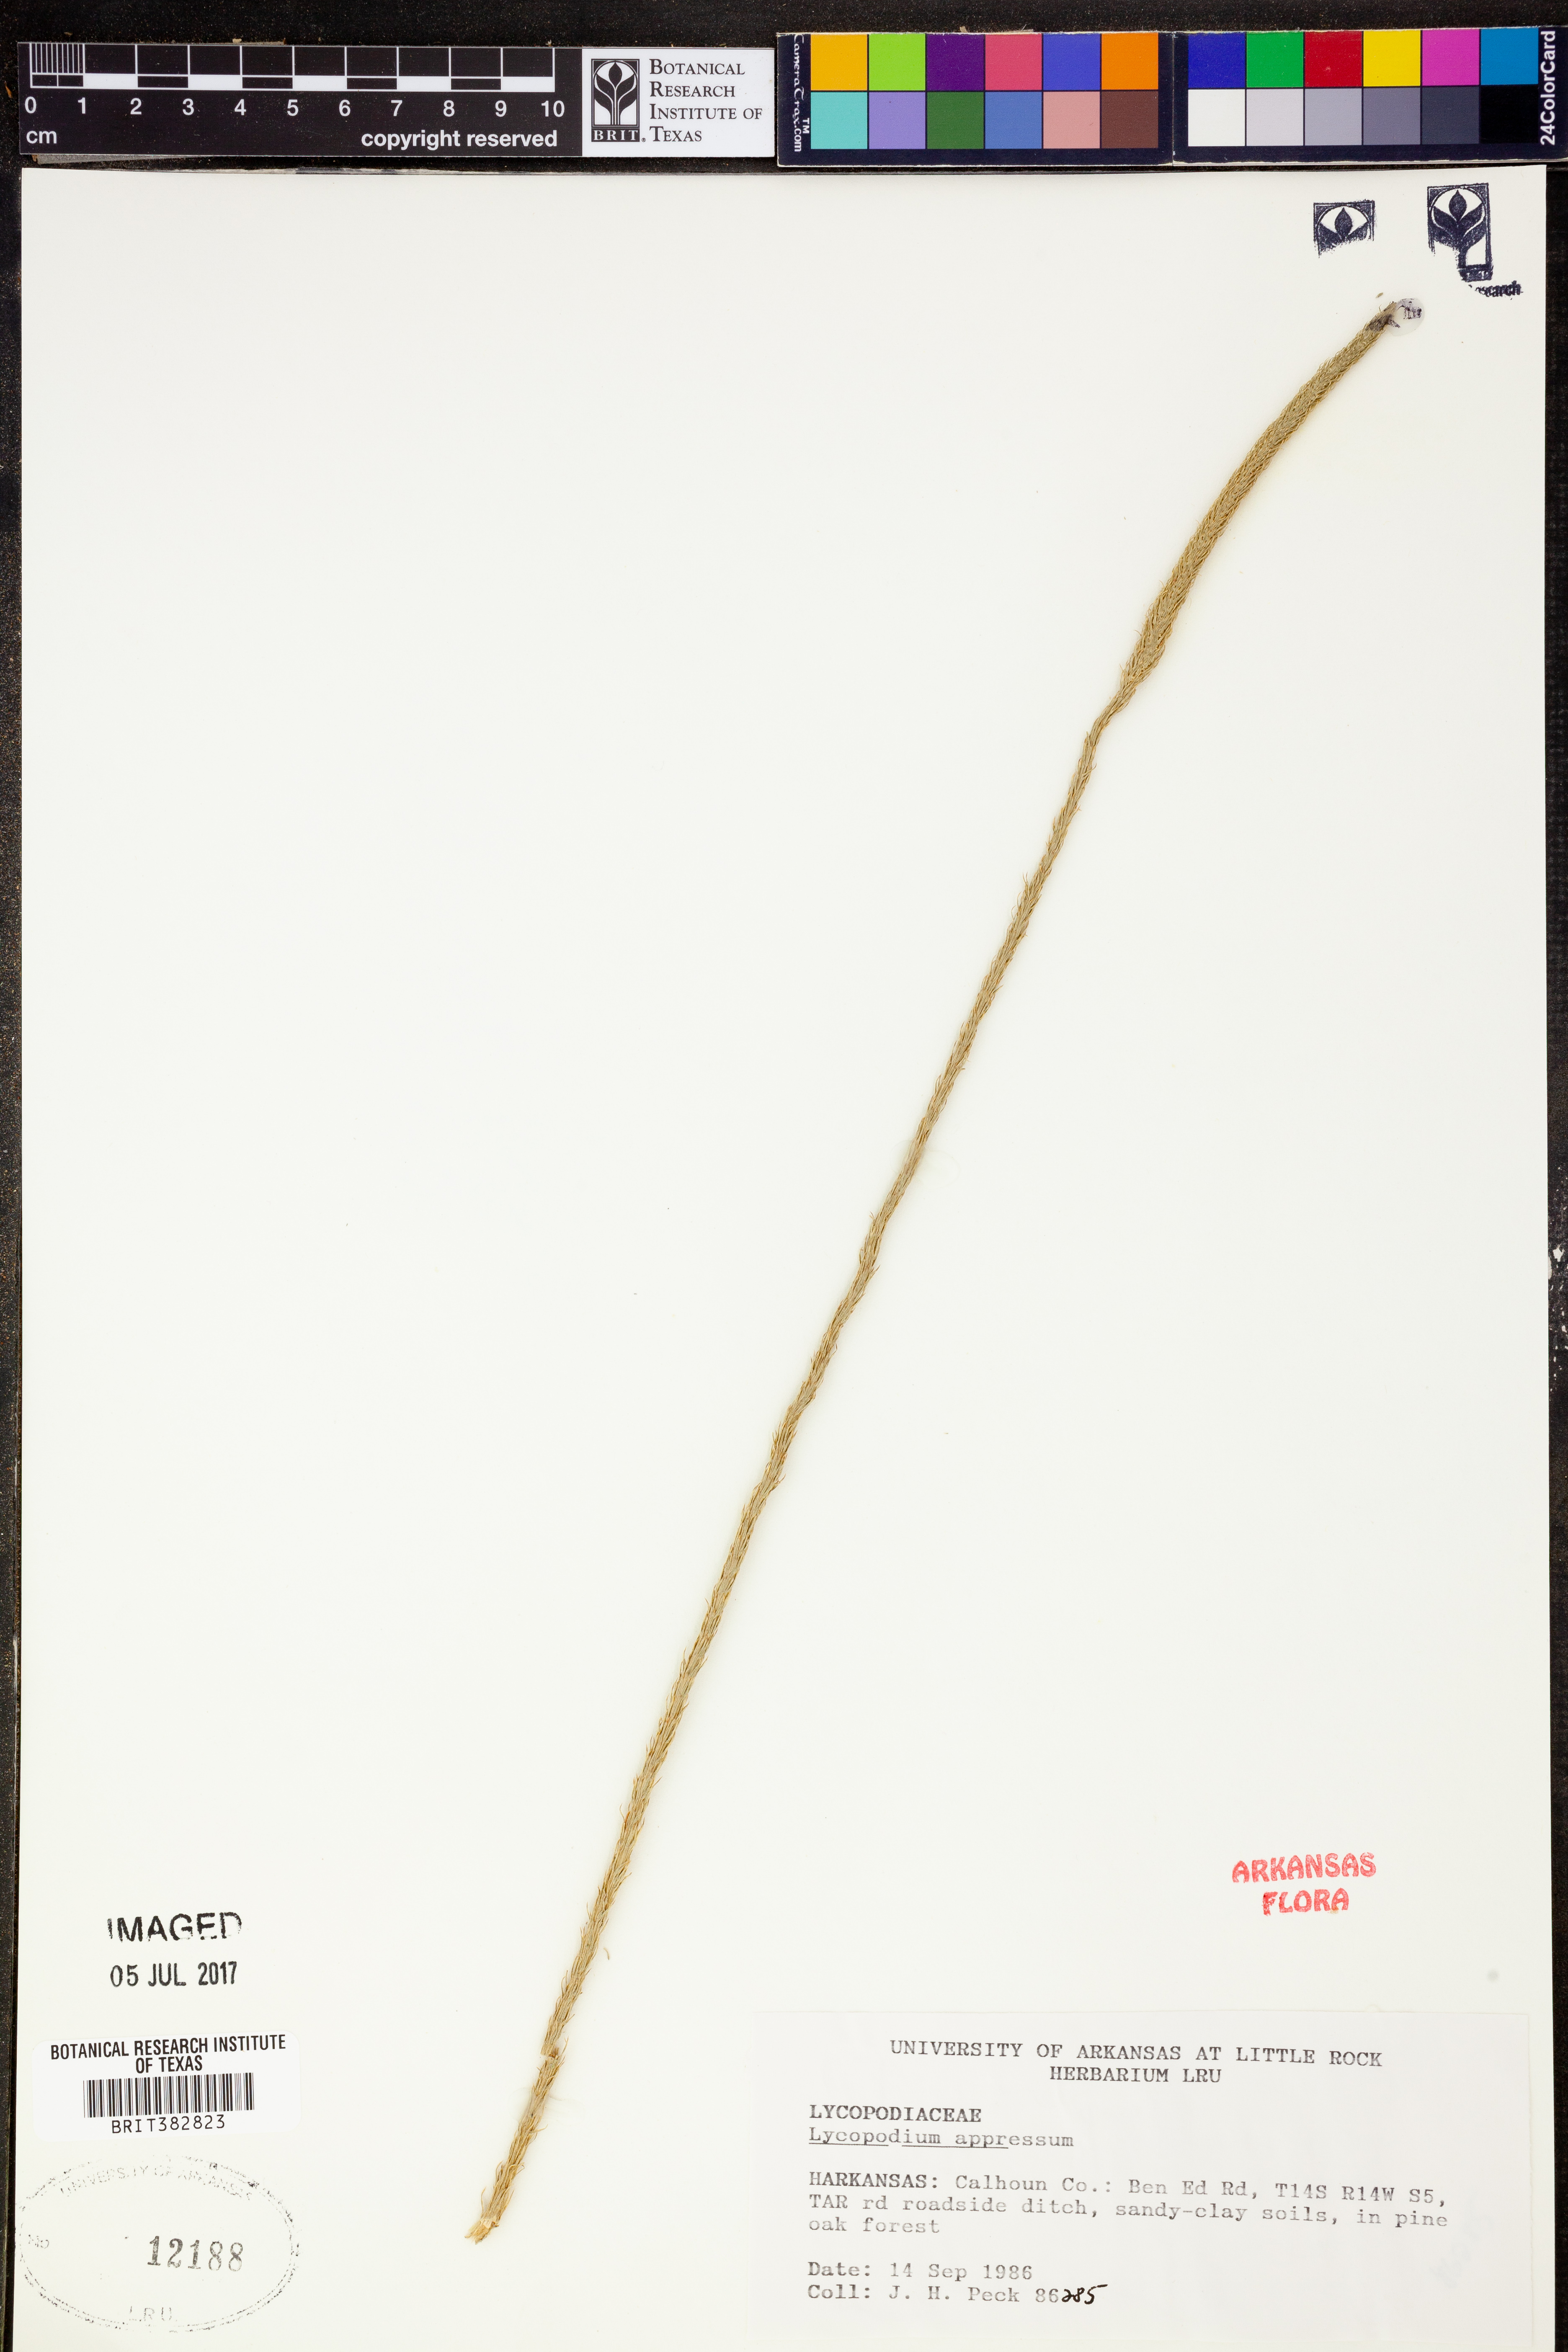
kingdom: Plantae
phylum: Tracheophyta
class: Lycopodiopsida
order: Lycopodiales
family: Lycopodiaceae
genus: Lycopodiella
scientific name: Lycopodiella appressa
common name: Appressed bog clubmoss
